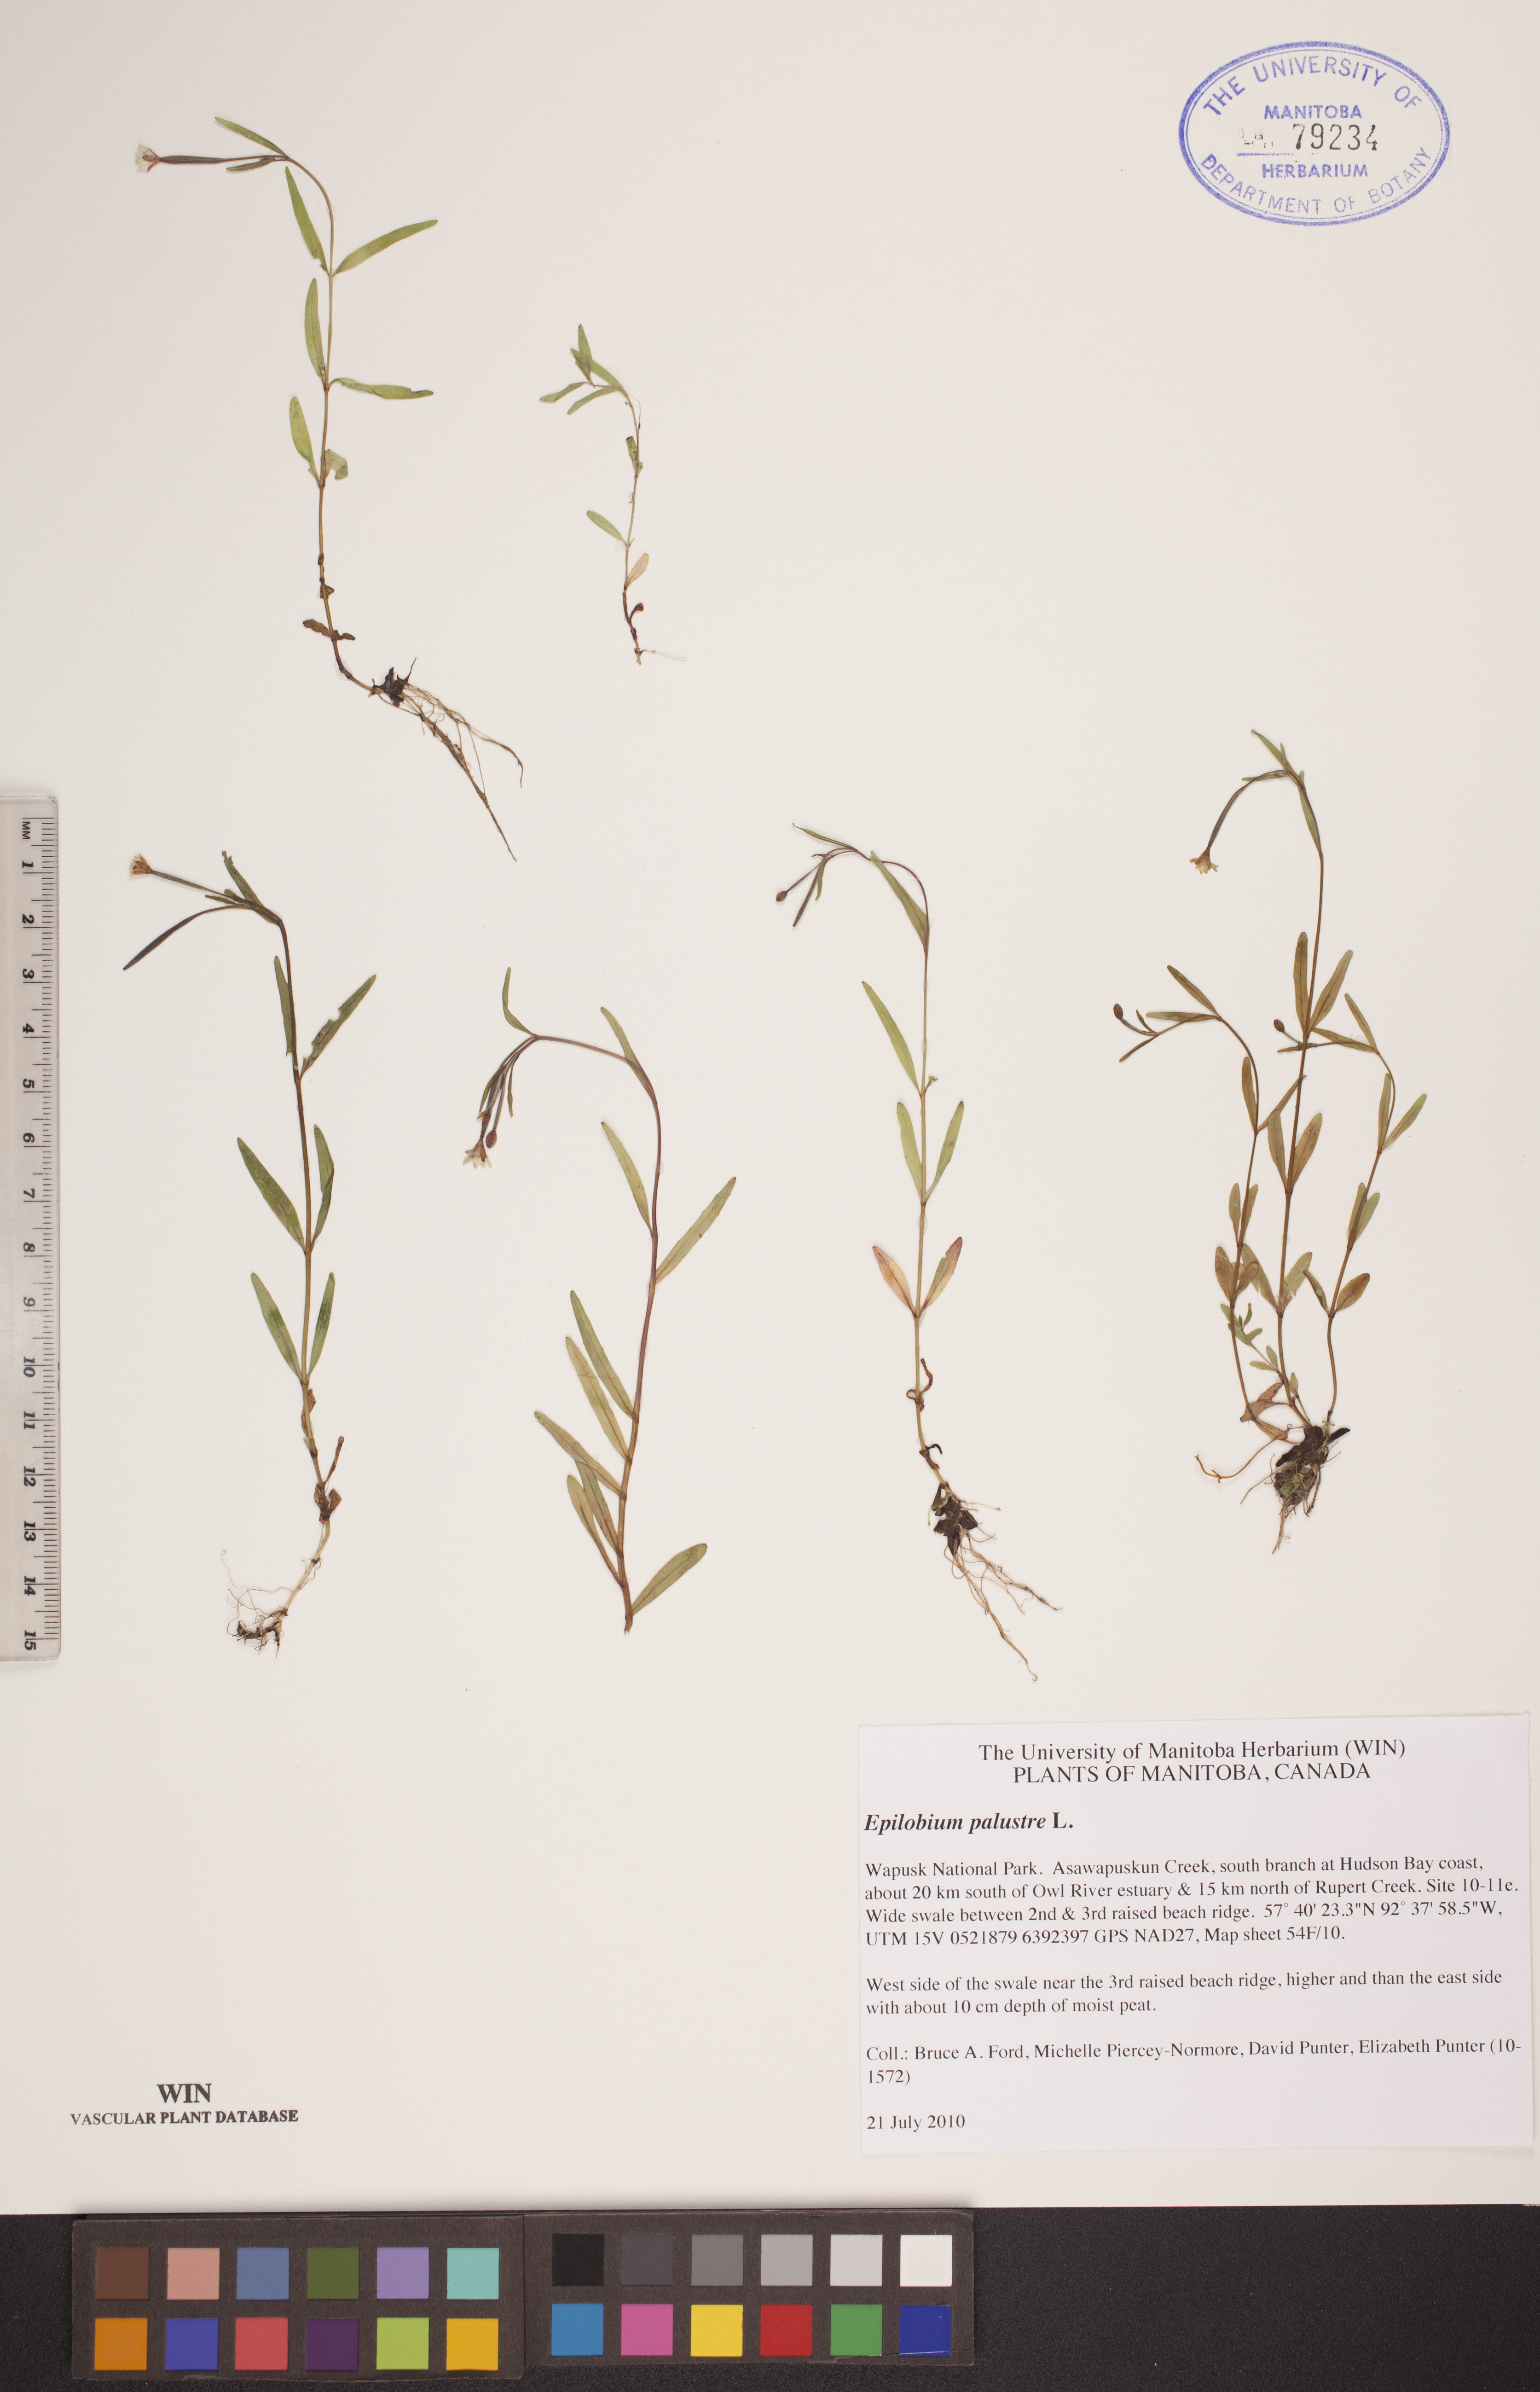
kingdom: Plantae
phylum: Tracheophyta
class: Magnoliopsida
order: Myrtales
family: Onagraceae
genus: Epilobium
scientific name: Epilobium palustre
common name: Marsh willowherb
